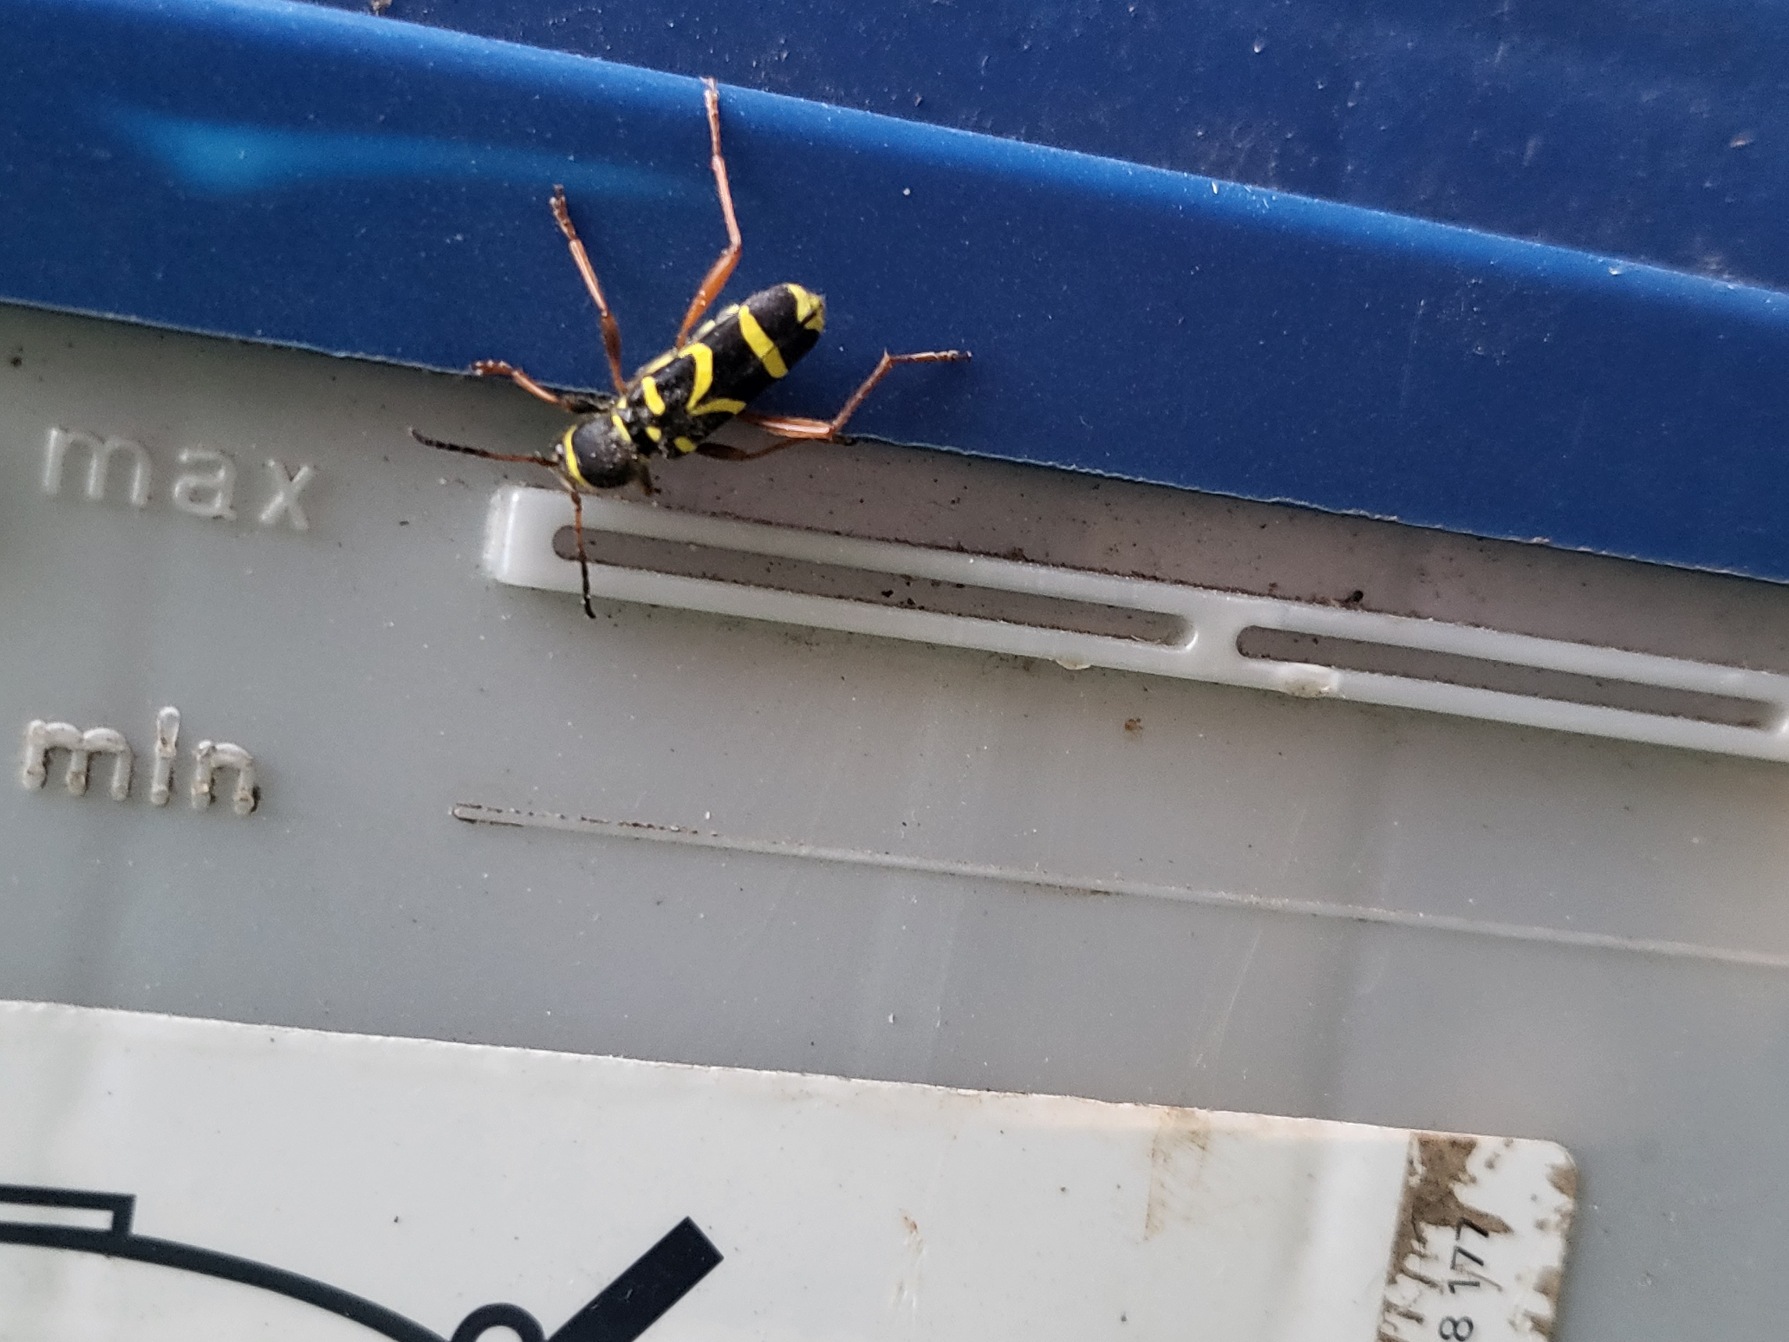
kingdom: Animalia
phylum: Arthropoda
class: Insecta
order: Coleoptera
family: Cerambycidae
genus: Clytus
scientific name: Clytus arietis
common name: Lille hvepsebuk
